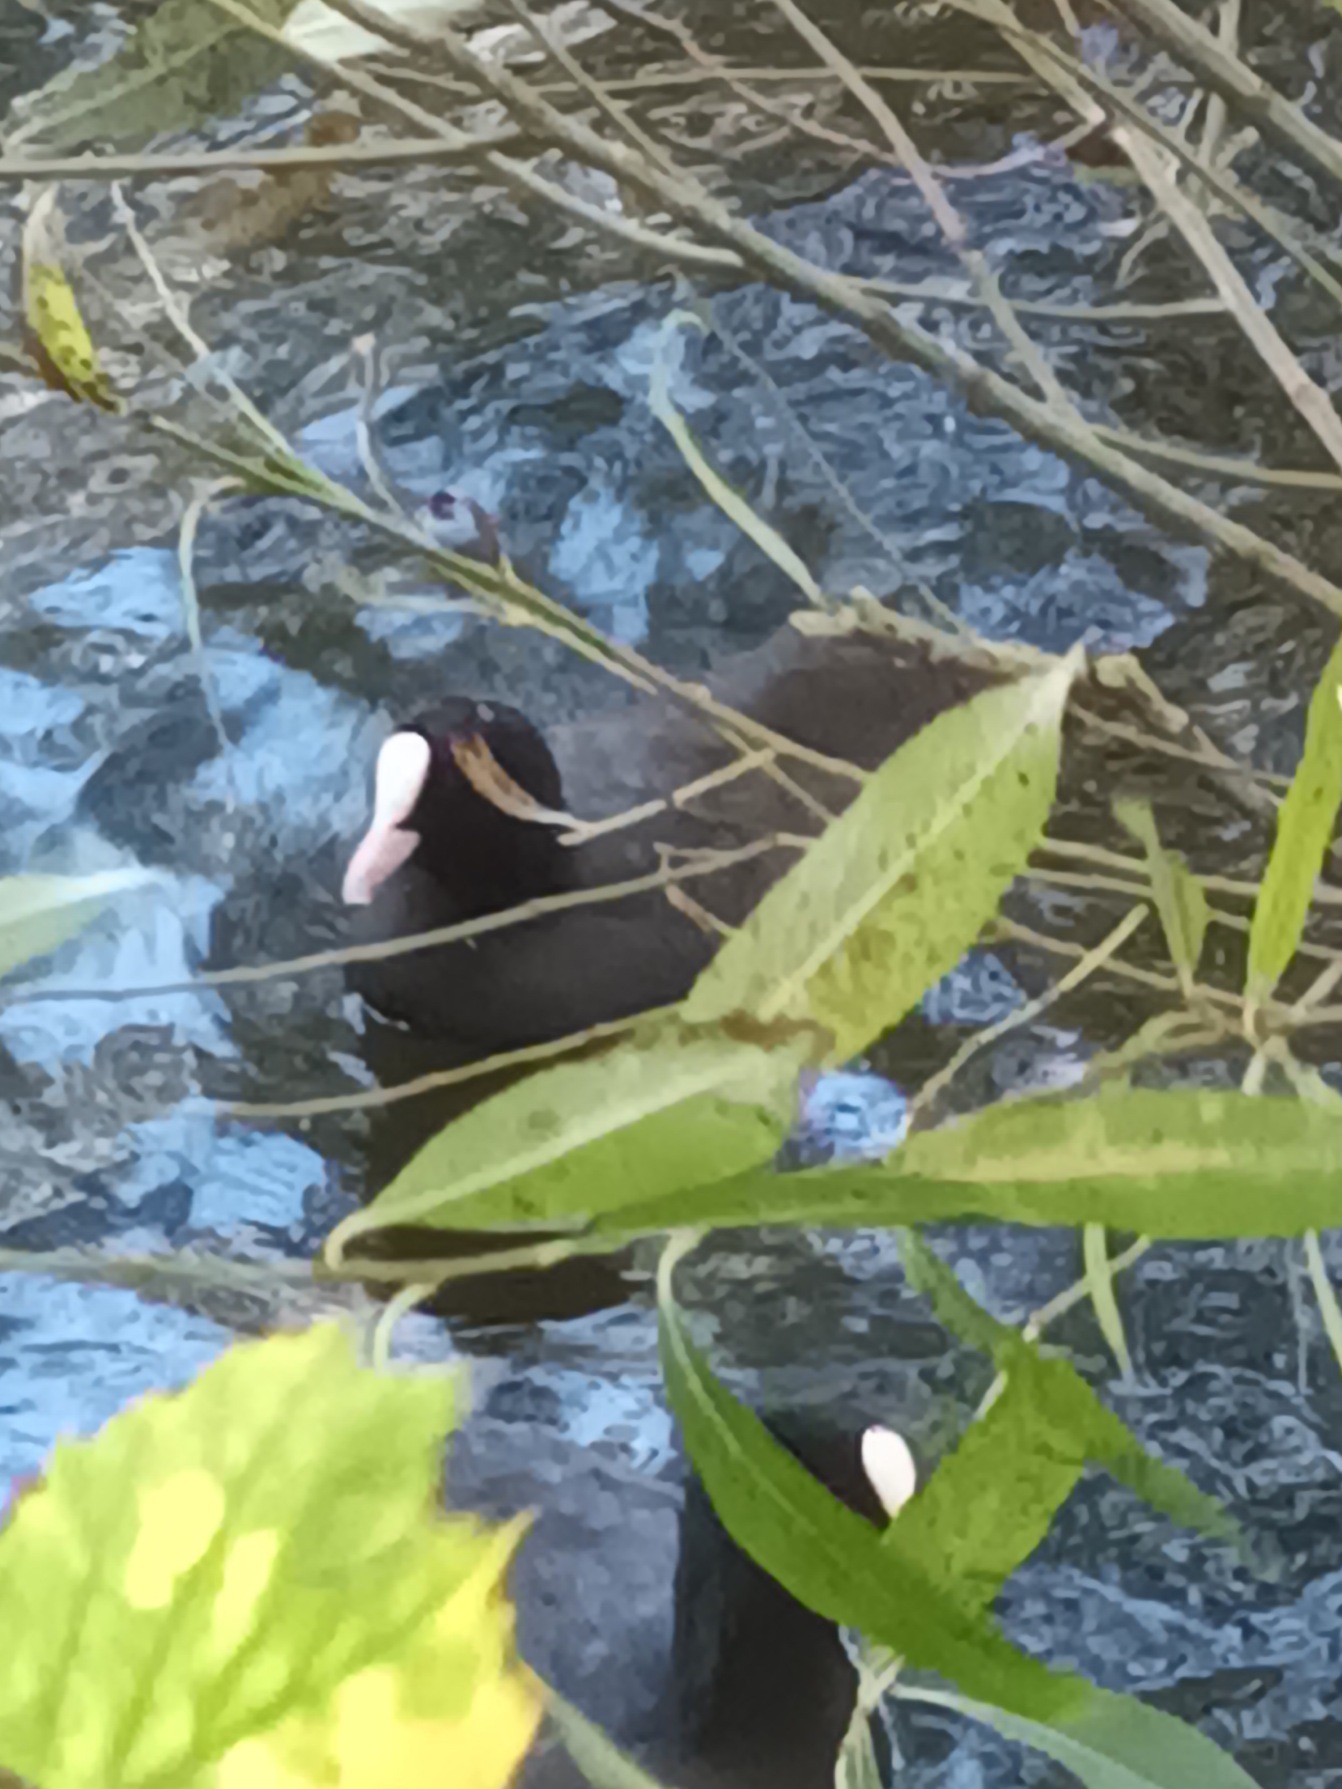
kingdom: Animalia
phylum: Chordata
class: Aves
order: Gruiformes
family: Rallidae
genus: Fulica
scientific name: Fulica atra
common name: Blishøne
